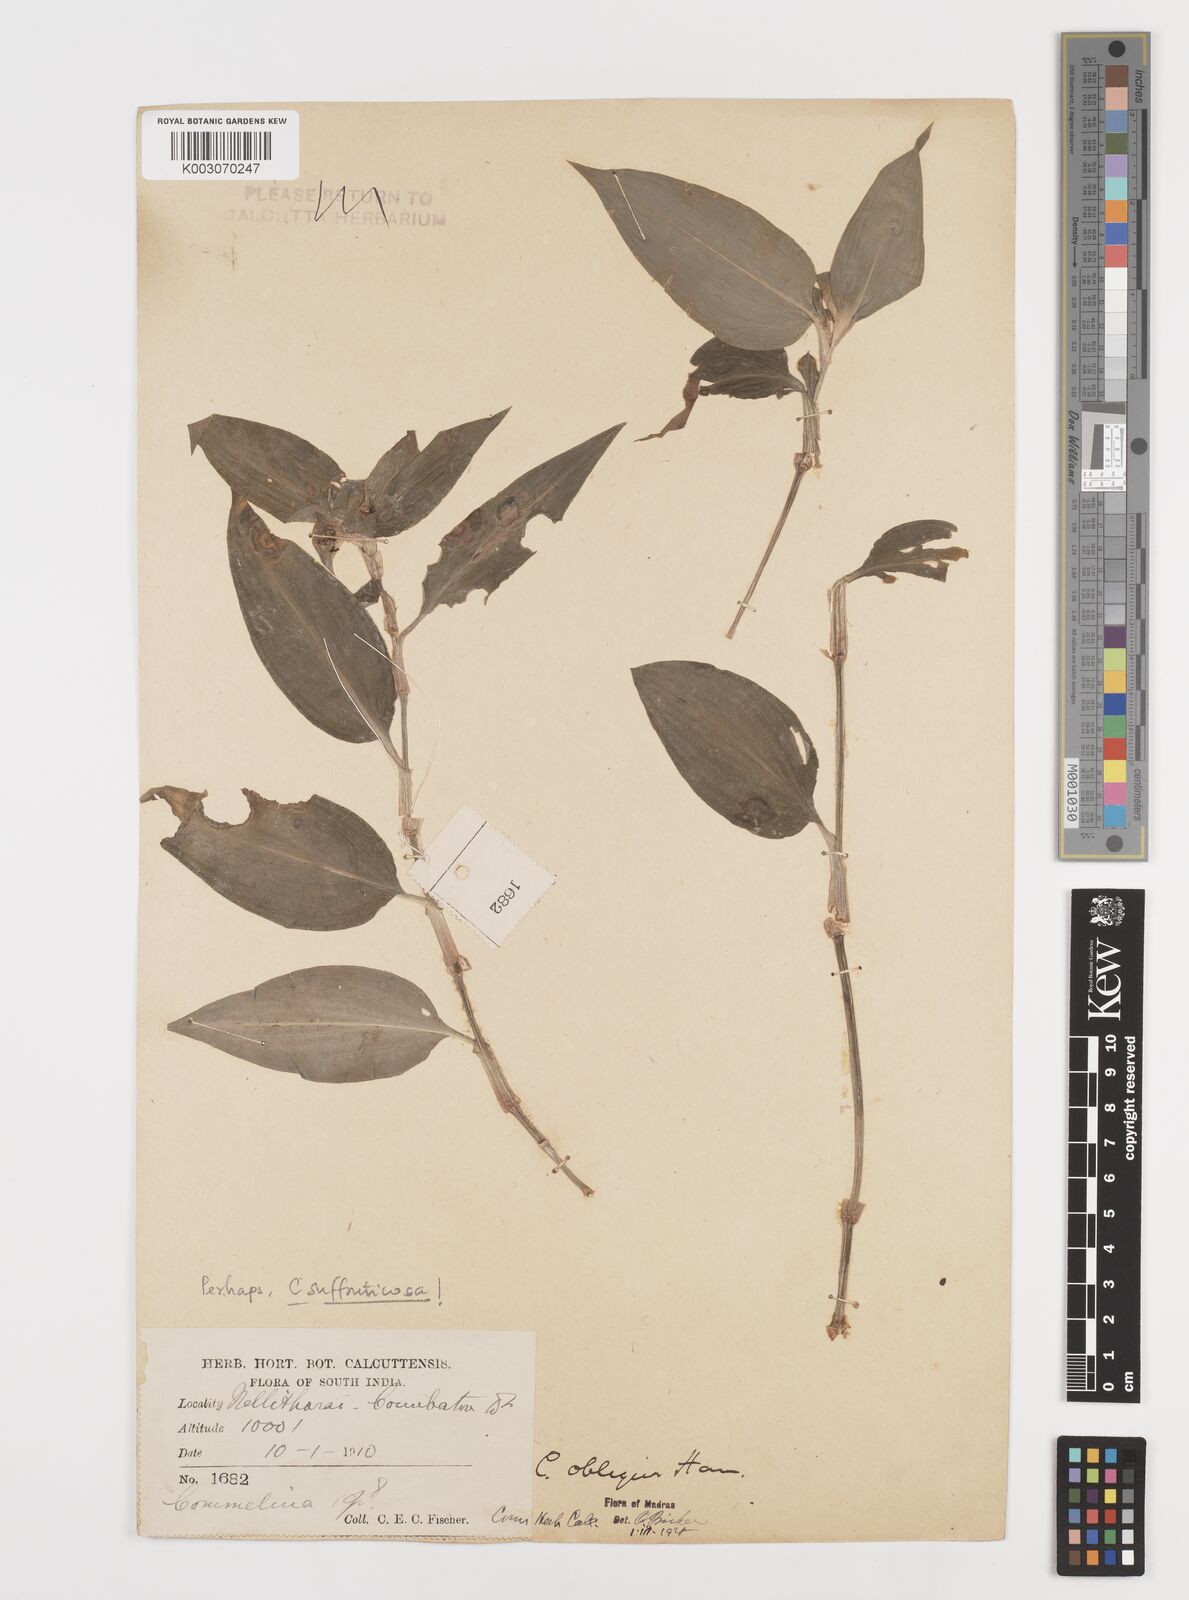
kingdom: Plantae
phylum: Tracheophyta
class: Liliopsida
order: Commelinales
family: Commelinaceae
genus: Commelina
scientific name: Commelina paludosa
